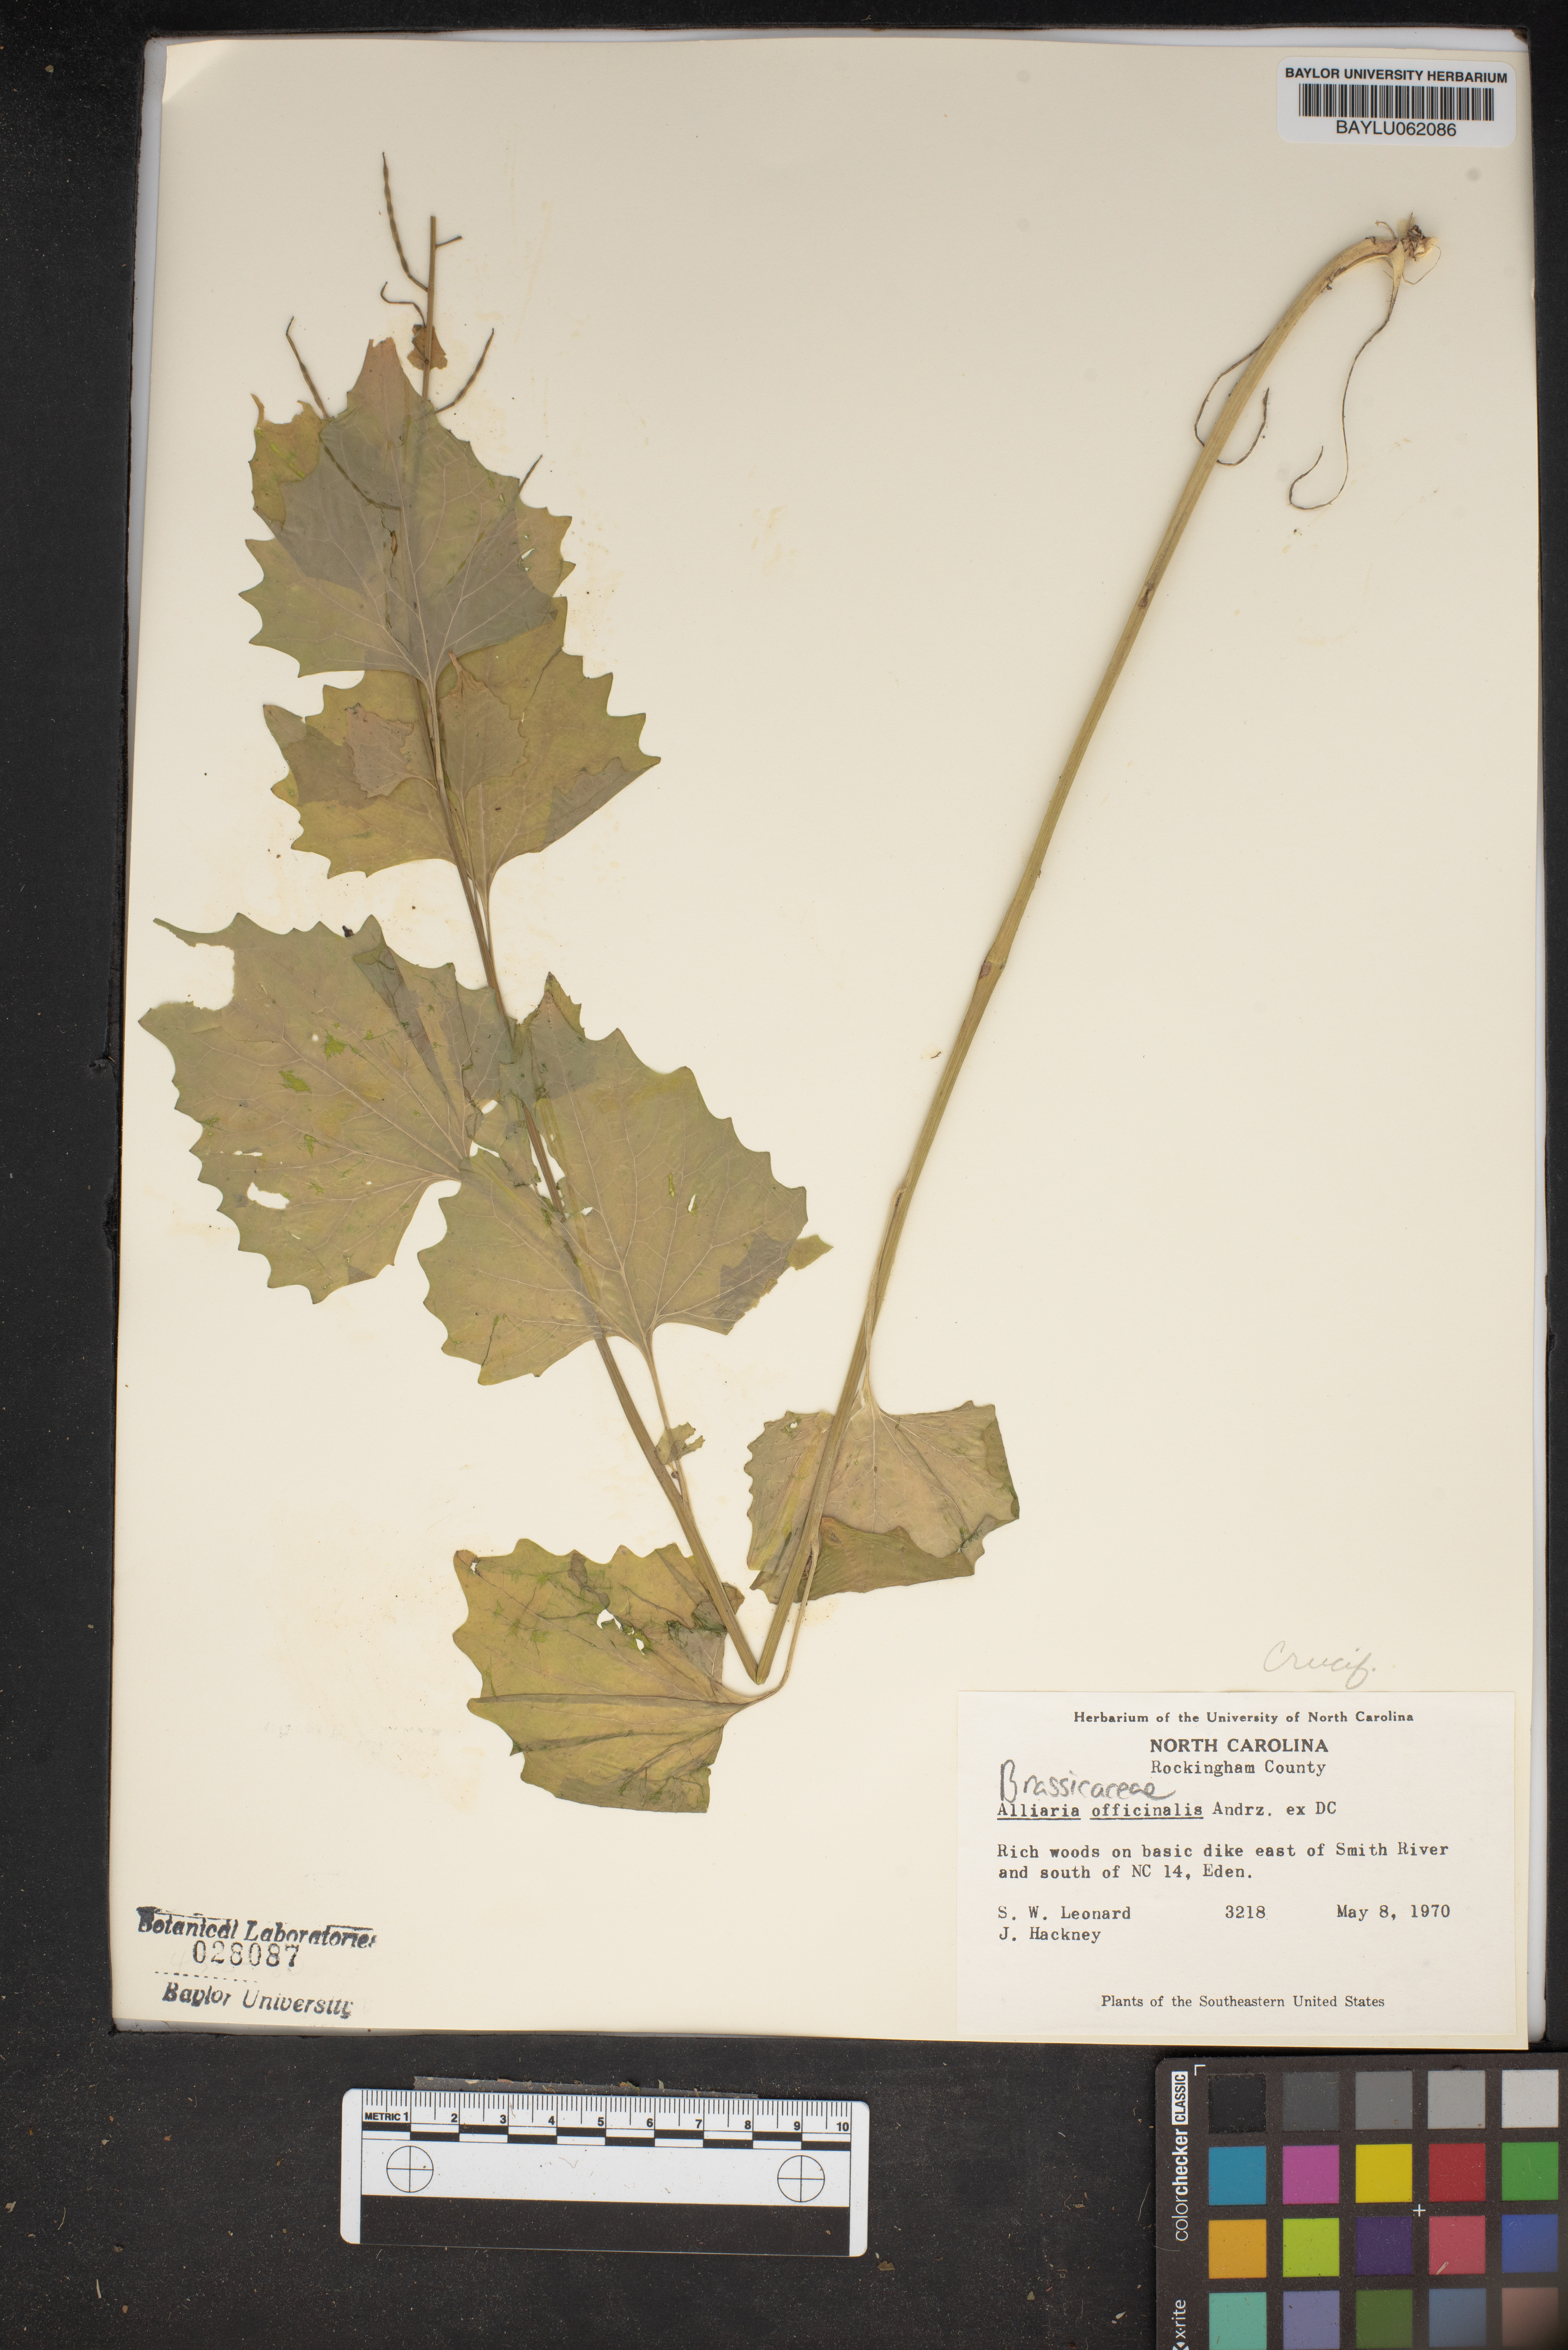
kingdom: Plantae
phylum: Tracheophyta
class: Magnoliopsida
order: Brassicales
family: Brassicaceae
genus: Alliaria
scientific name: Alliaria petiolata
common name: Garlic mustard
